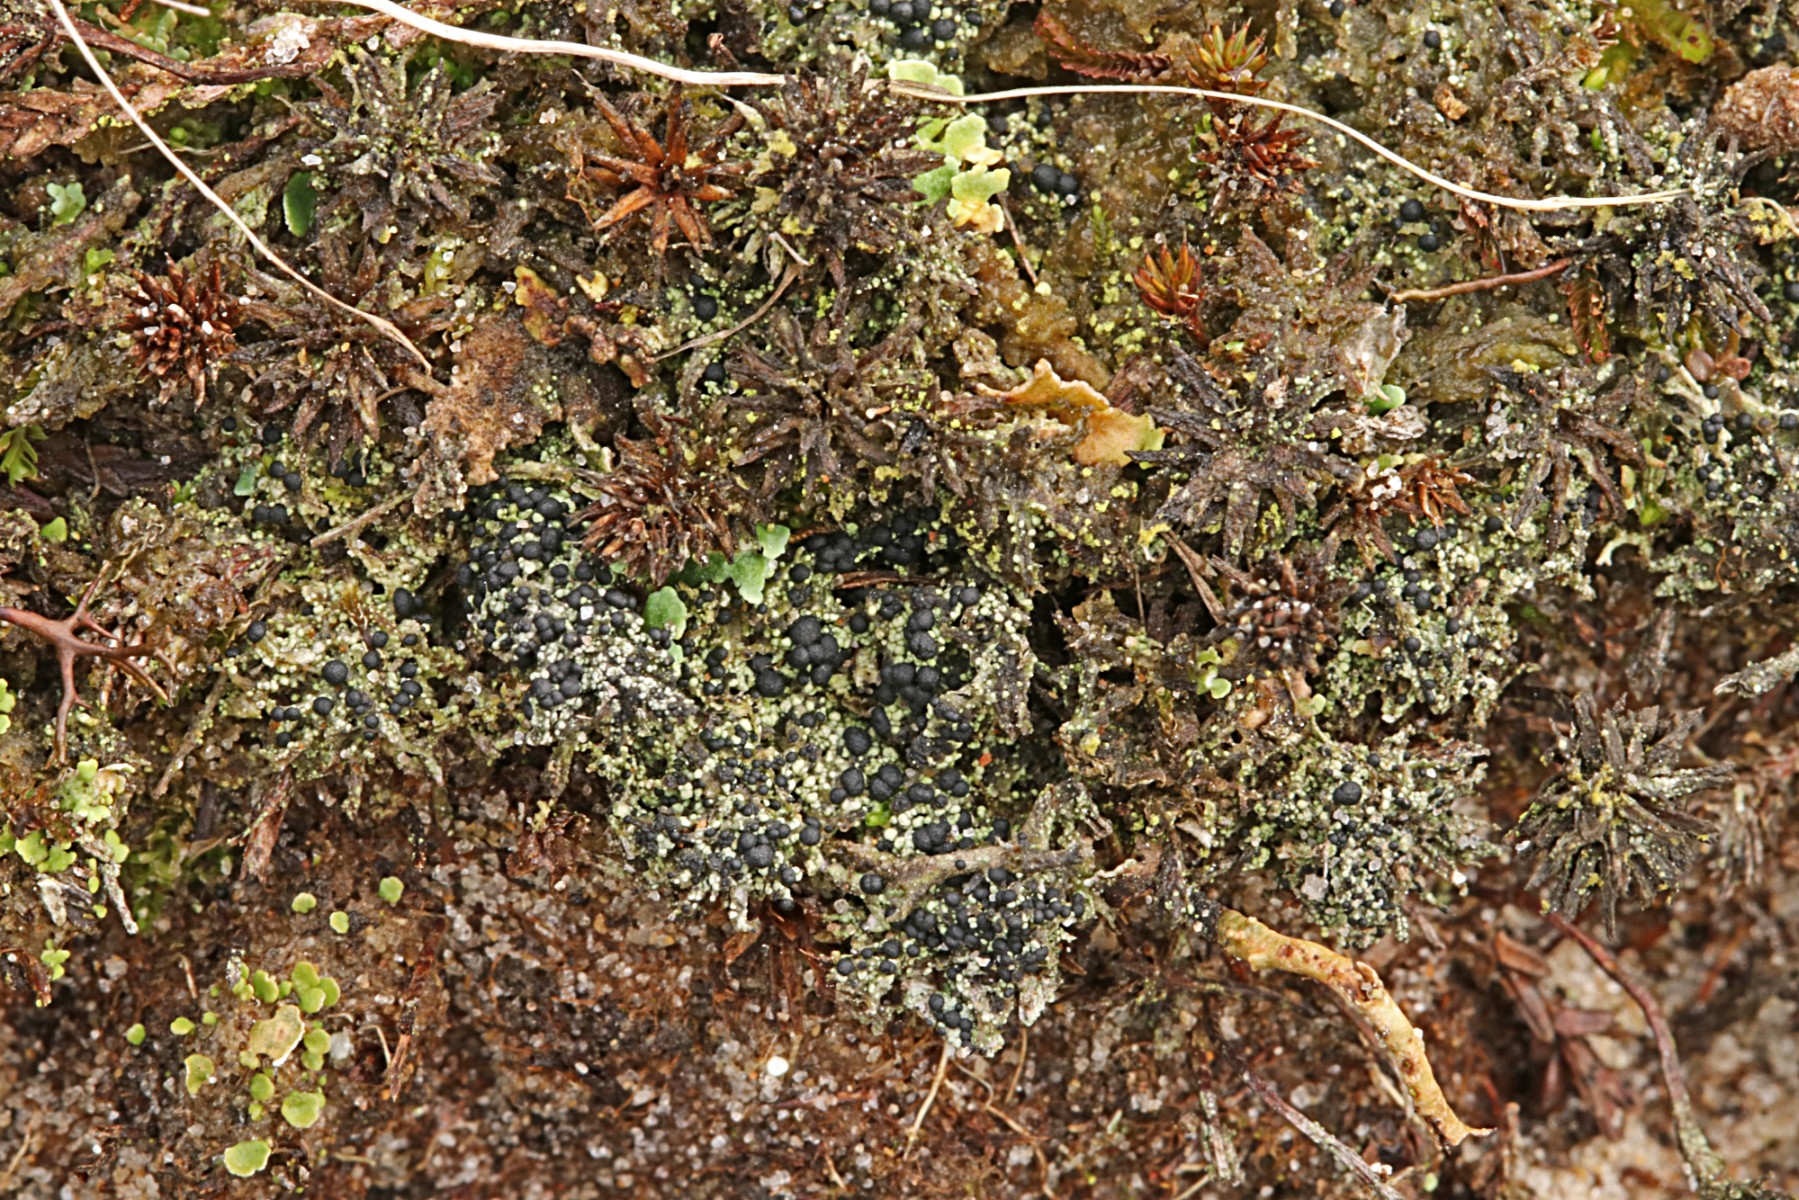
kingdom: Fungi
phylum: Ascomycota
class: Lecanoromycetes
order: Lecanorales
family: Byssolomataceae
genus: Micarea
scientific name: Micarea lignaria
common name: tørve-knaplav
